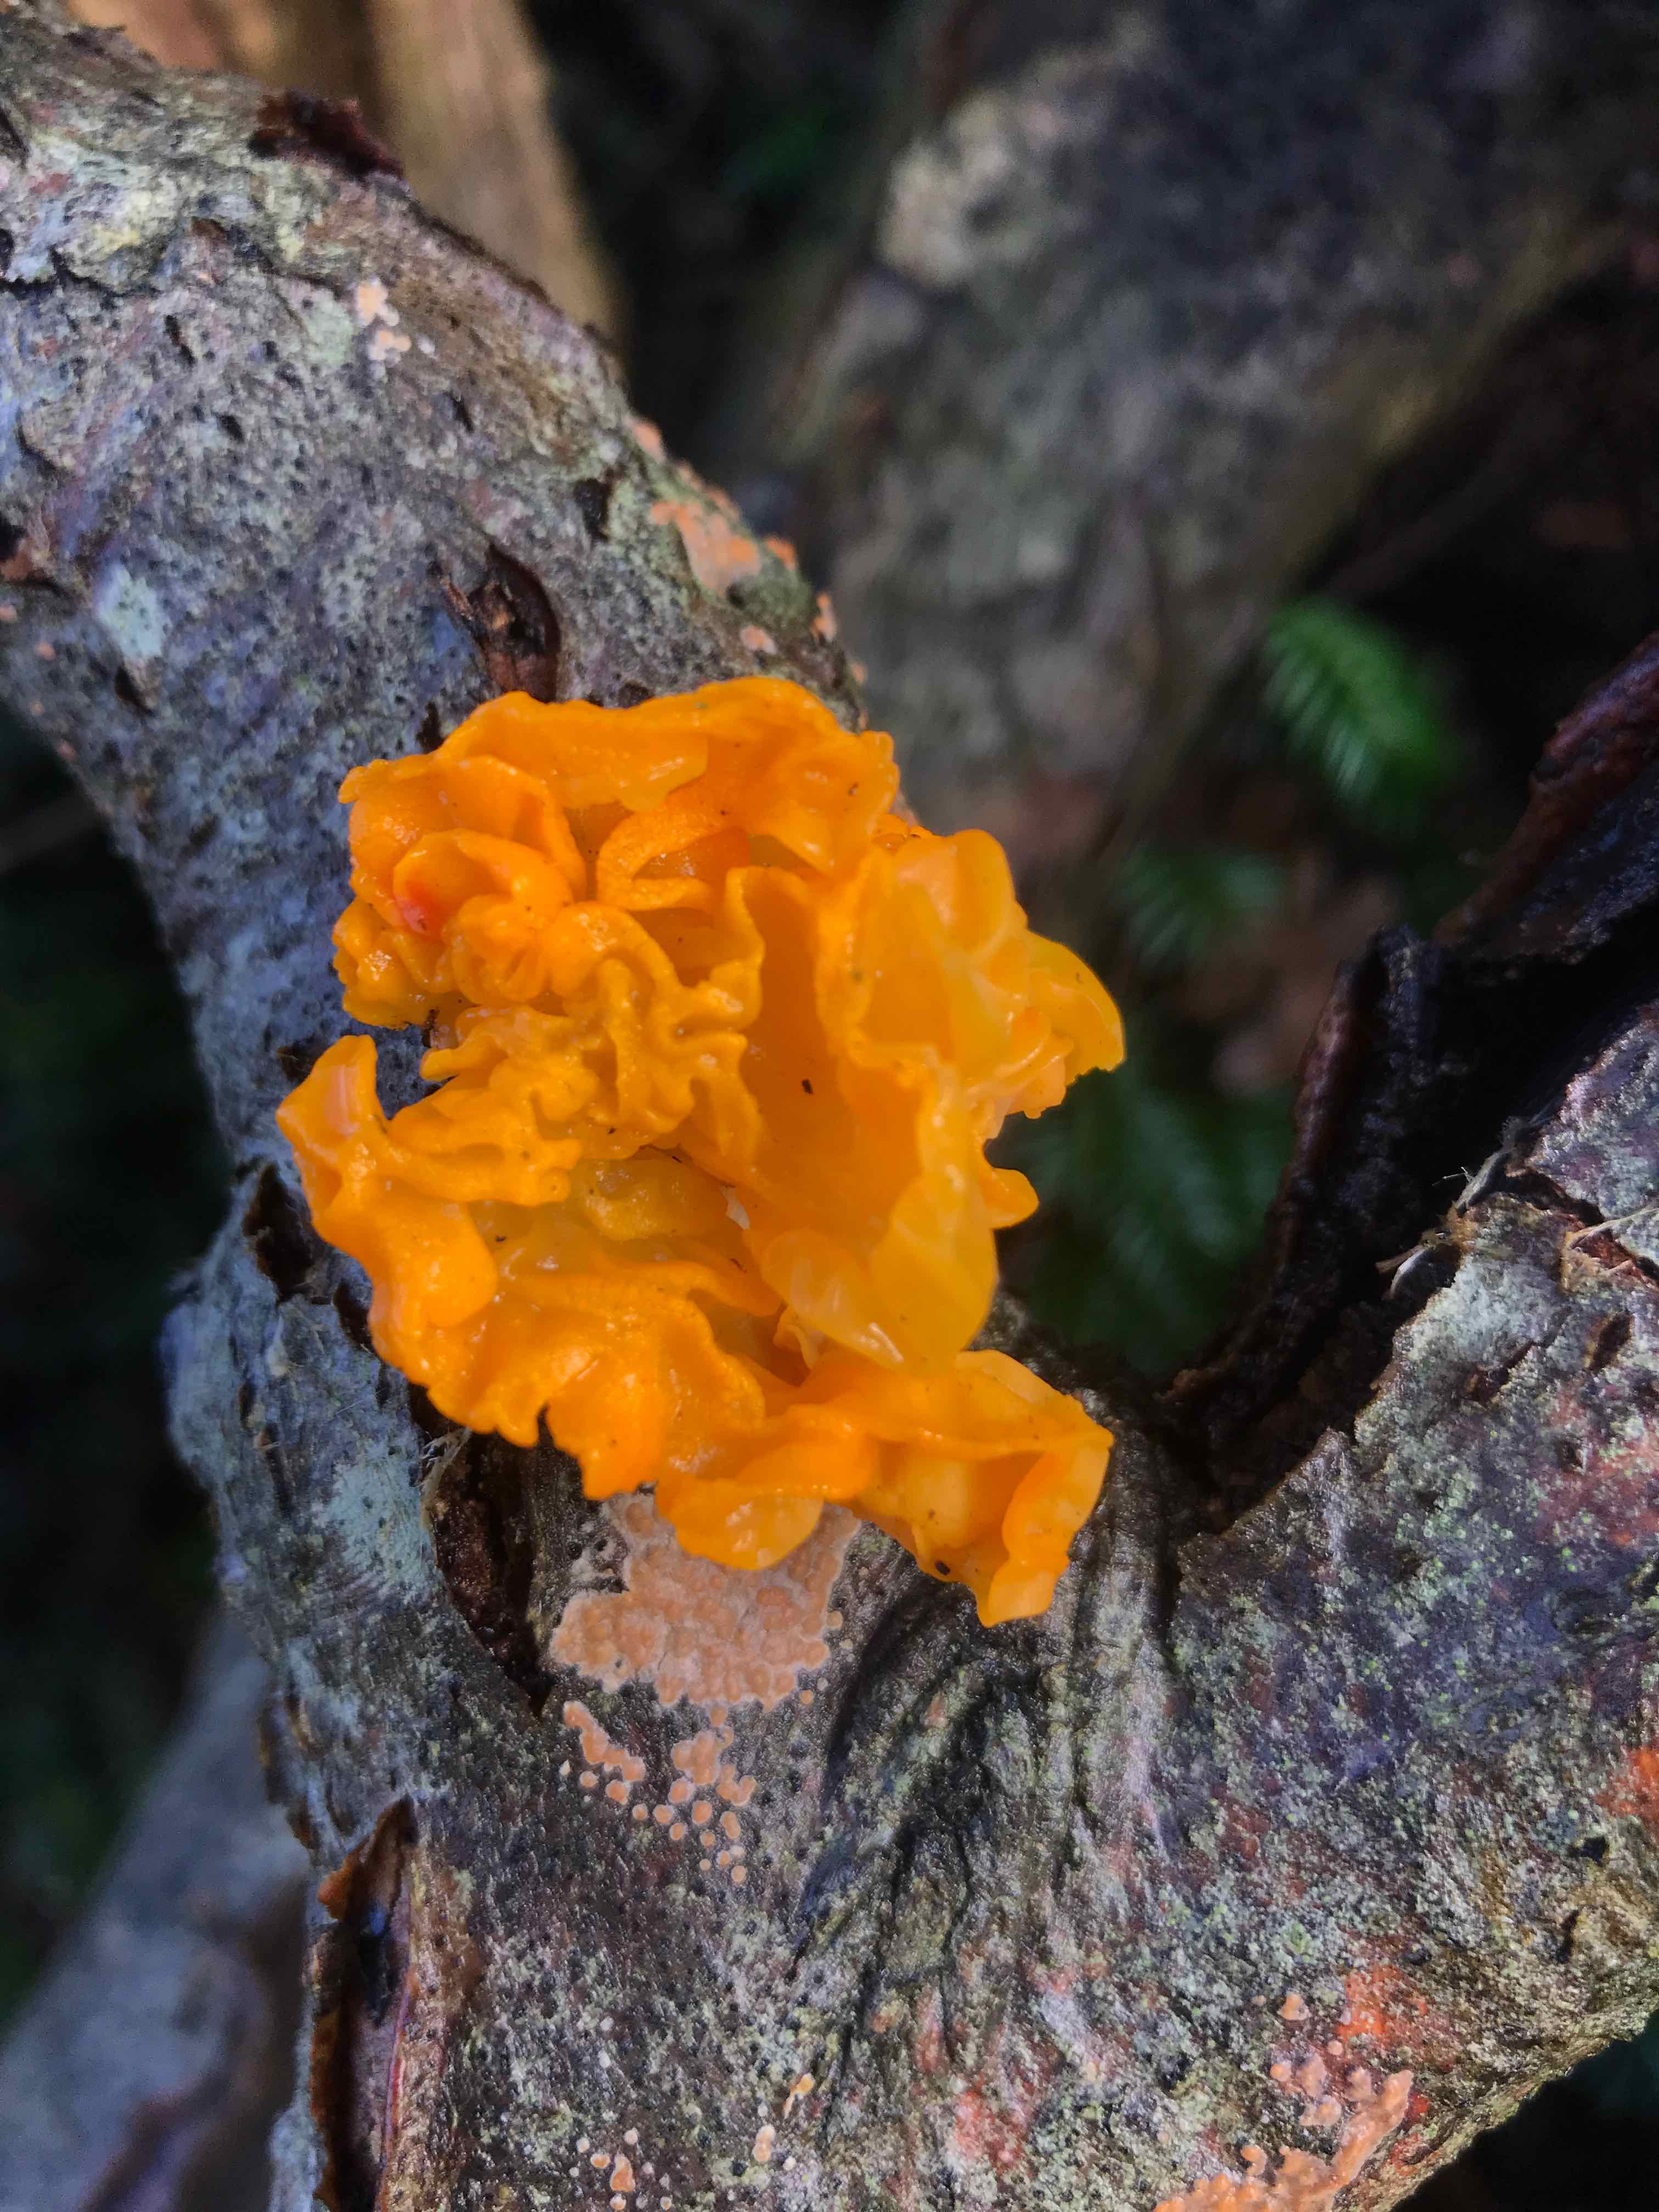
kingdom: Fungi
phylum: Basidiomycota
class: Tremellomycetes
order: Tremellales
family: Tremellaceae
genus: Tremella
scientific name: Tremella mesenterica
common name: gul bævresvamp
